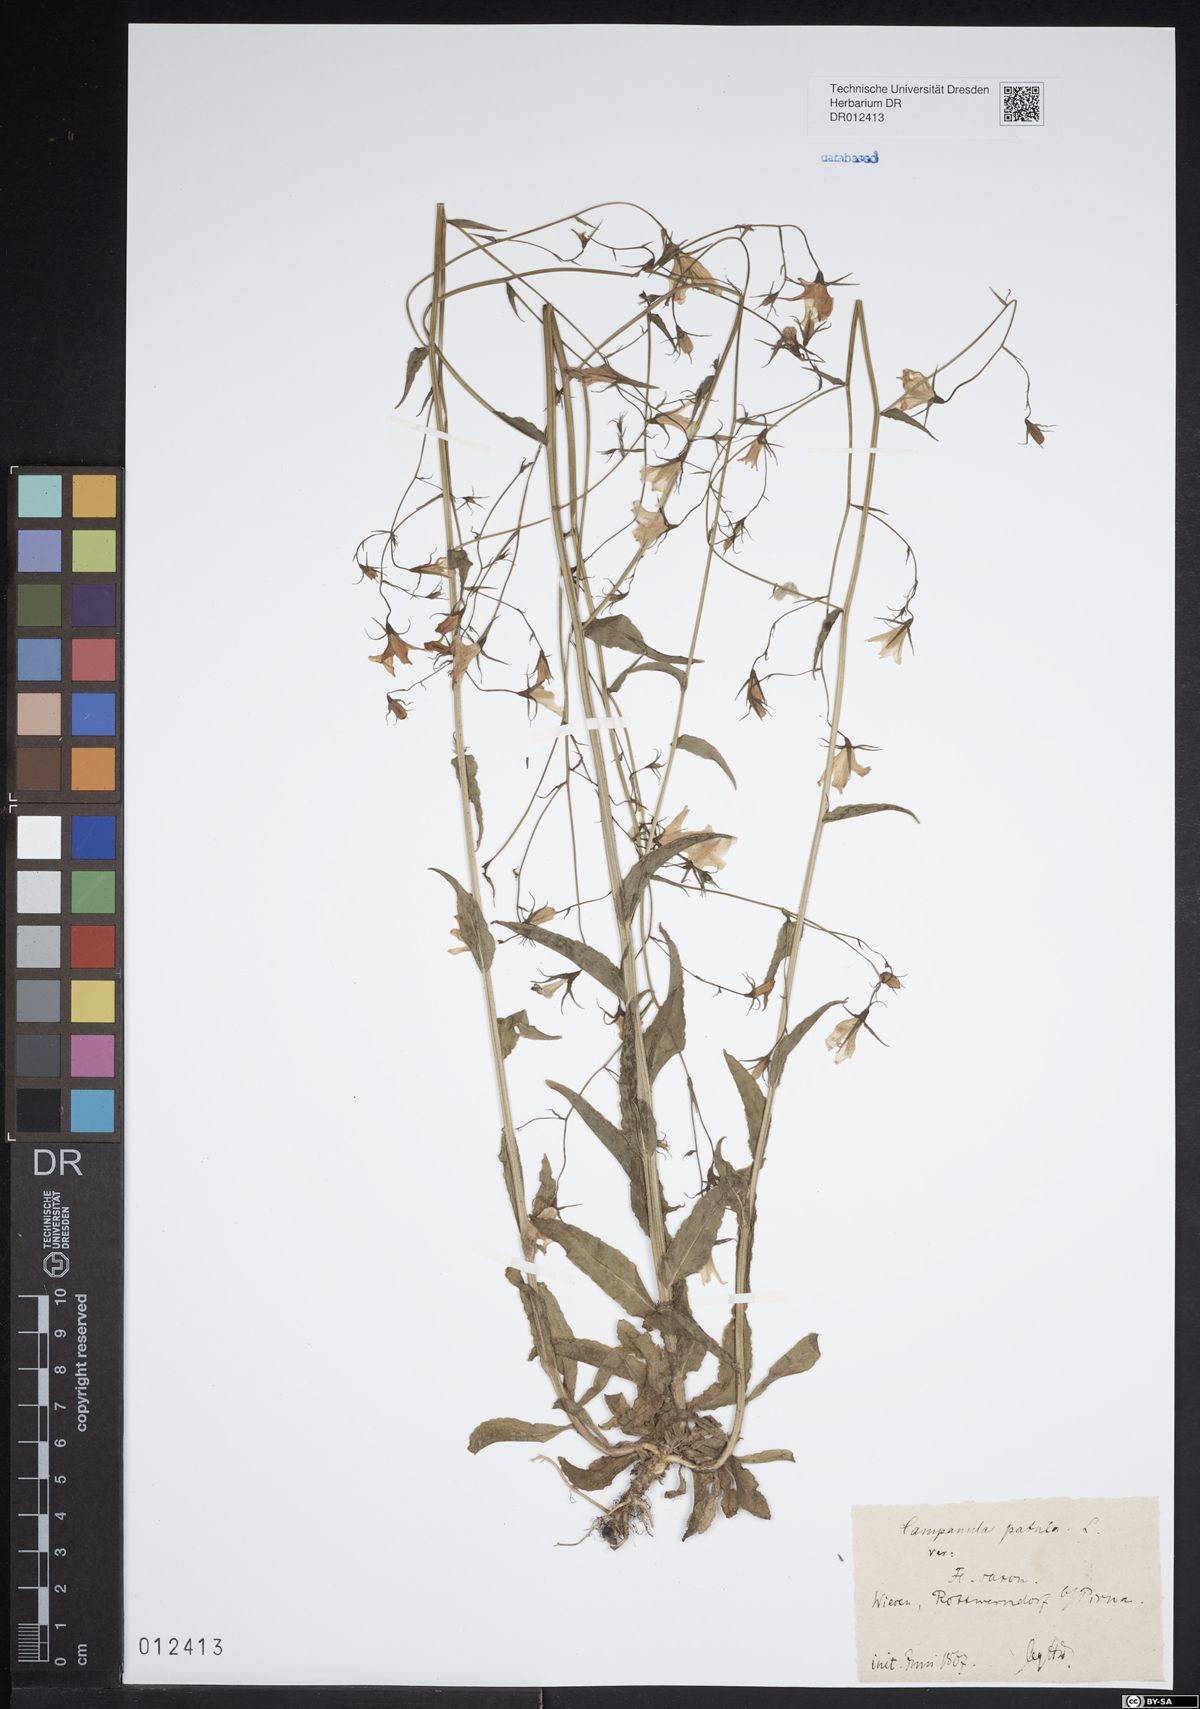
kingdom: Plantae
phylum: Tracheophyta
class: Magnoliopsida
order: Asterales
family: Campanulaceae
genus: Campanula
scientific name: Campanula patula
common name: Spreading bellflower
